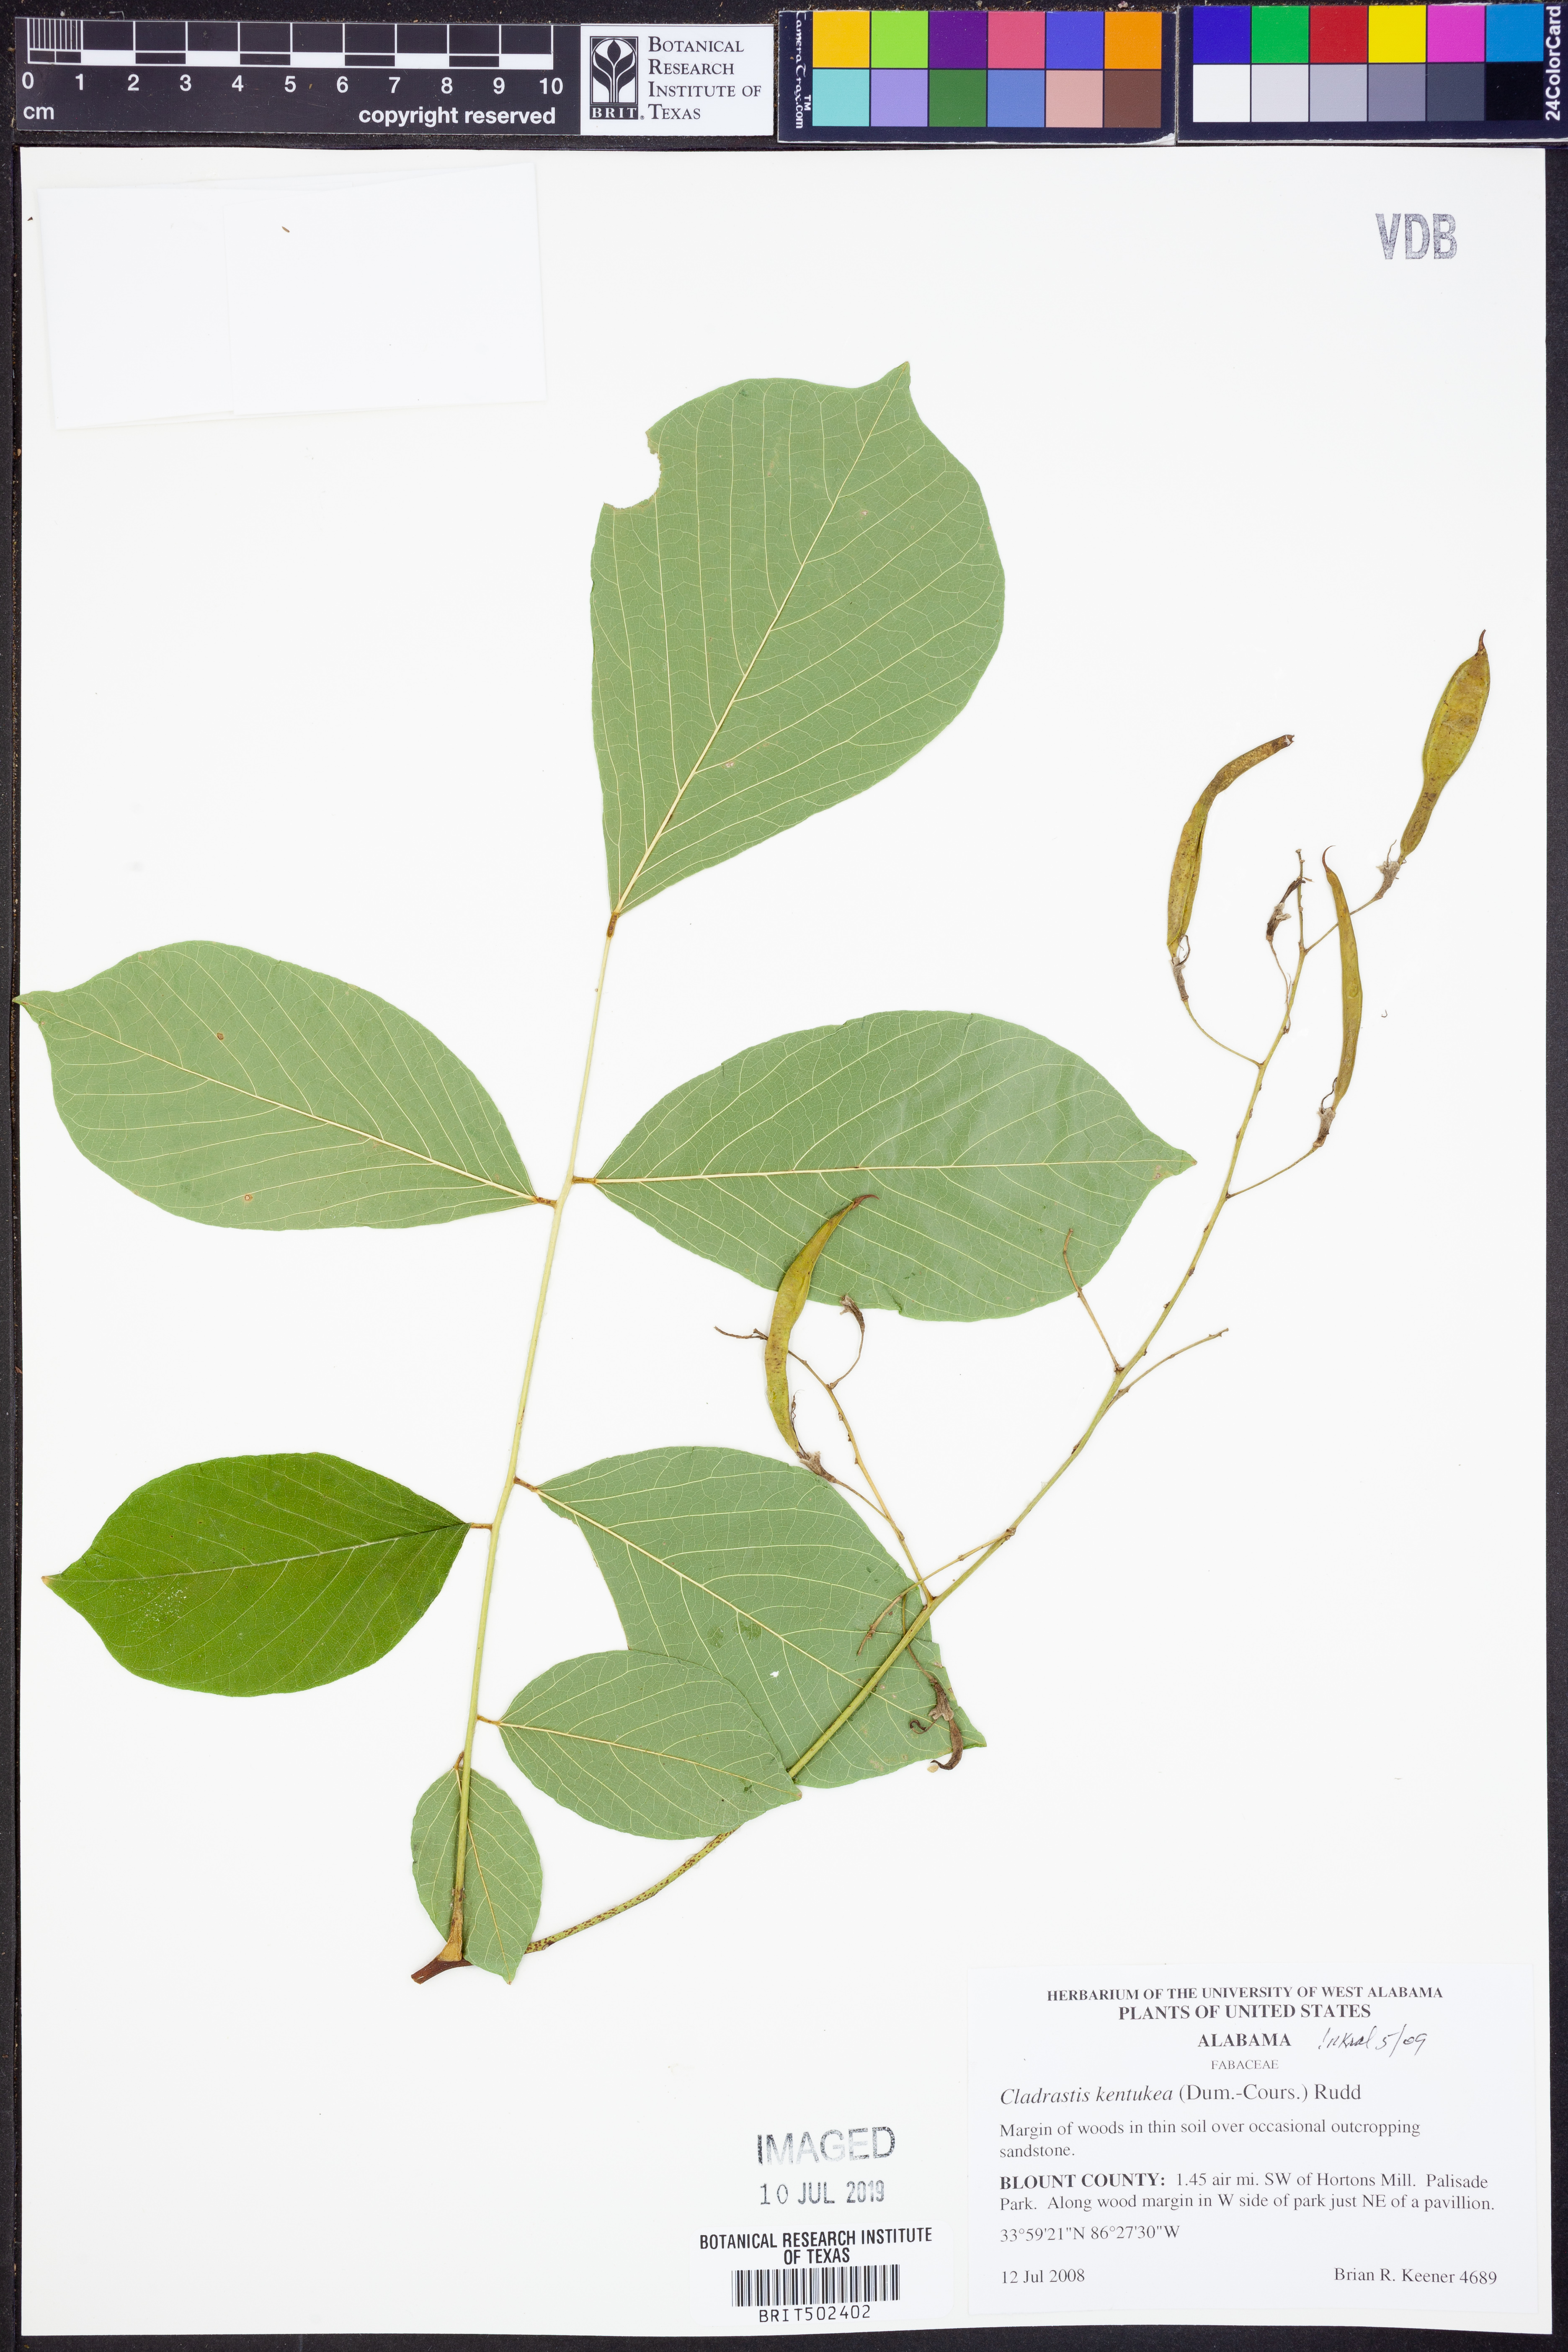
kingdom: Plantae
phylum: Tracheophyta
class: Magnoliopsida
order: Fabales
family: Fabaceae
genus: Cladrastis
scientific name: Cladrastis kentukea
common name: Kentucky yellow-wood
